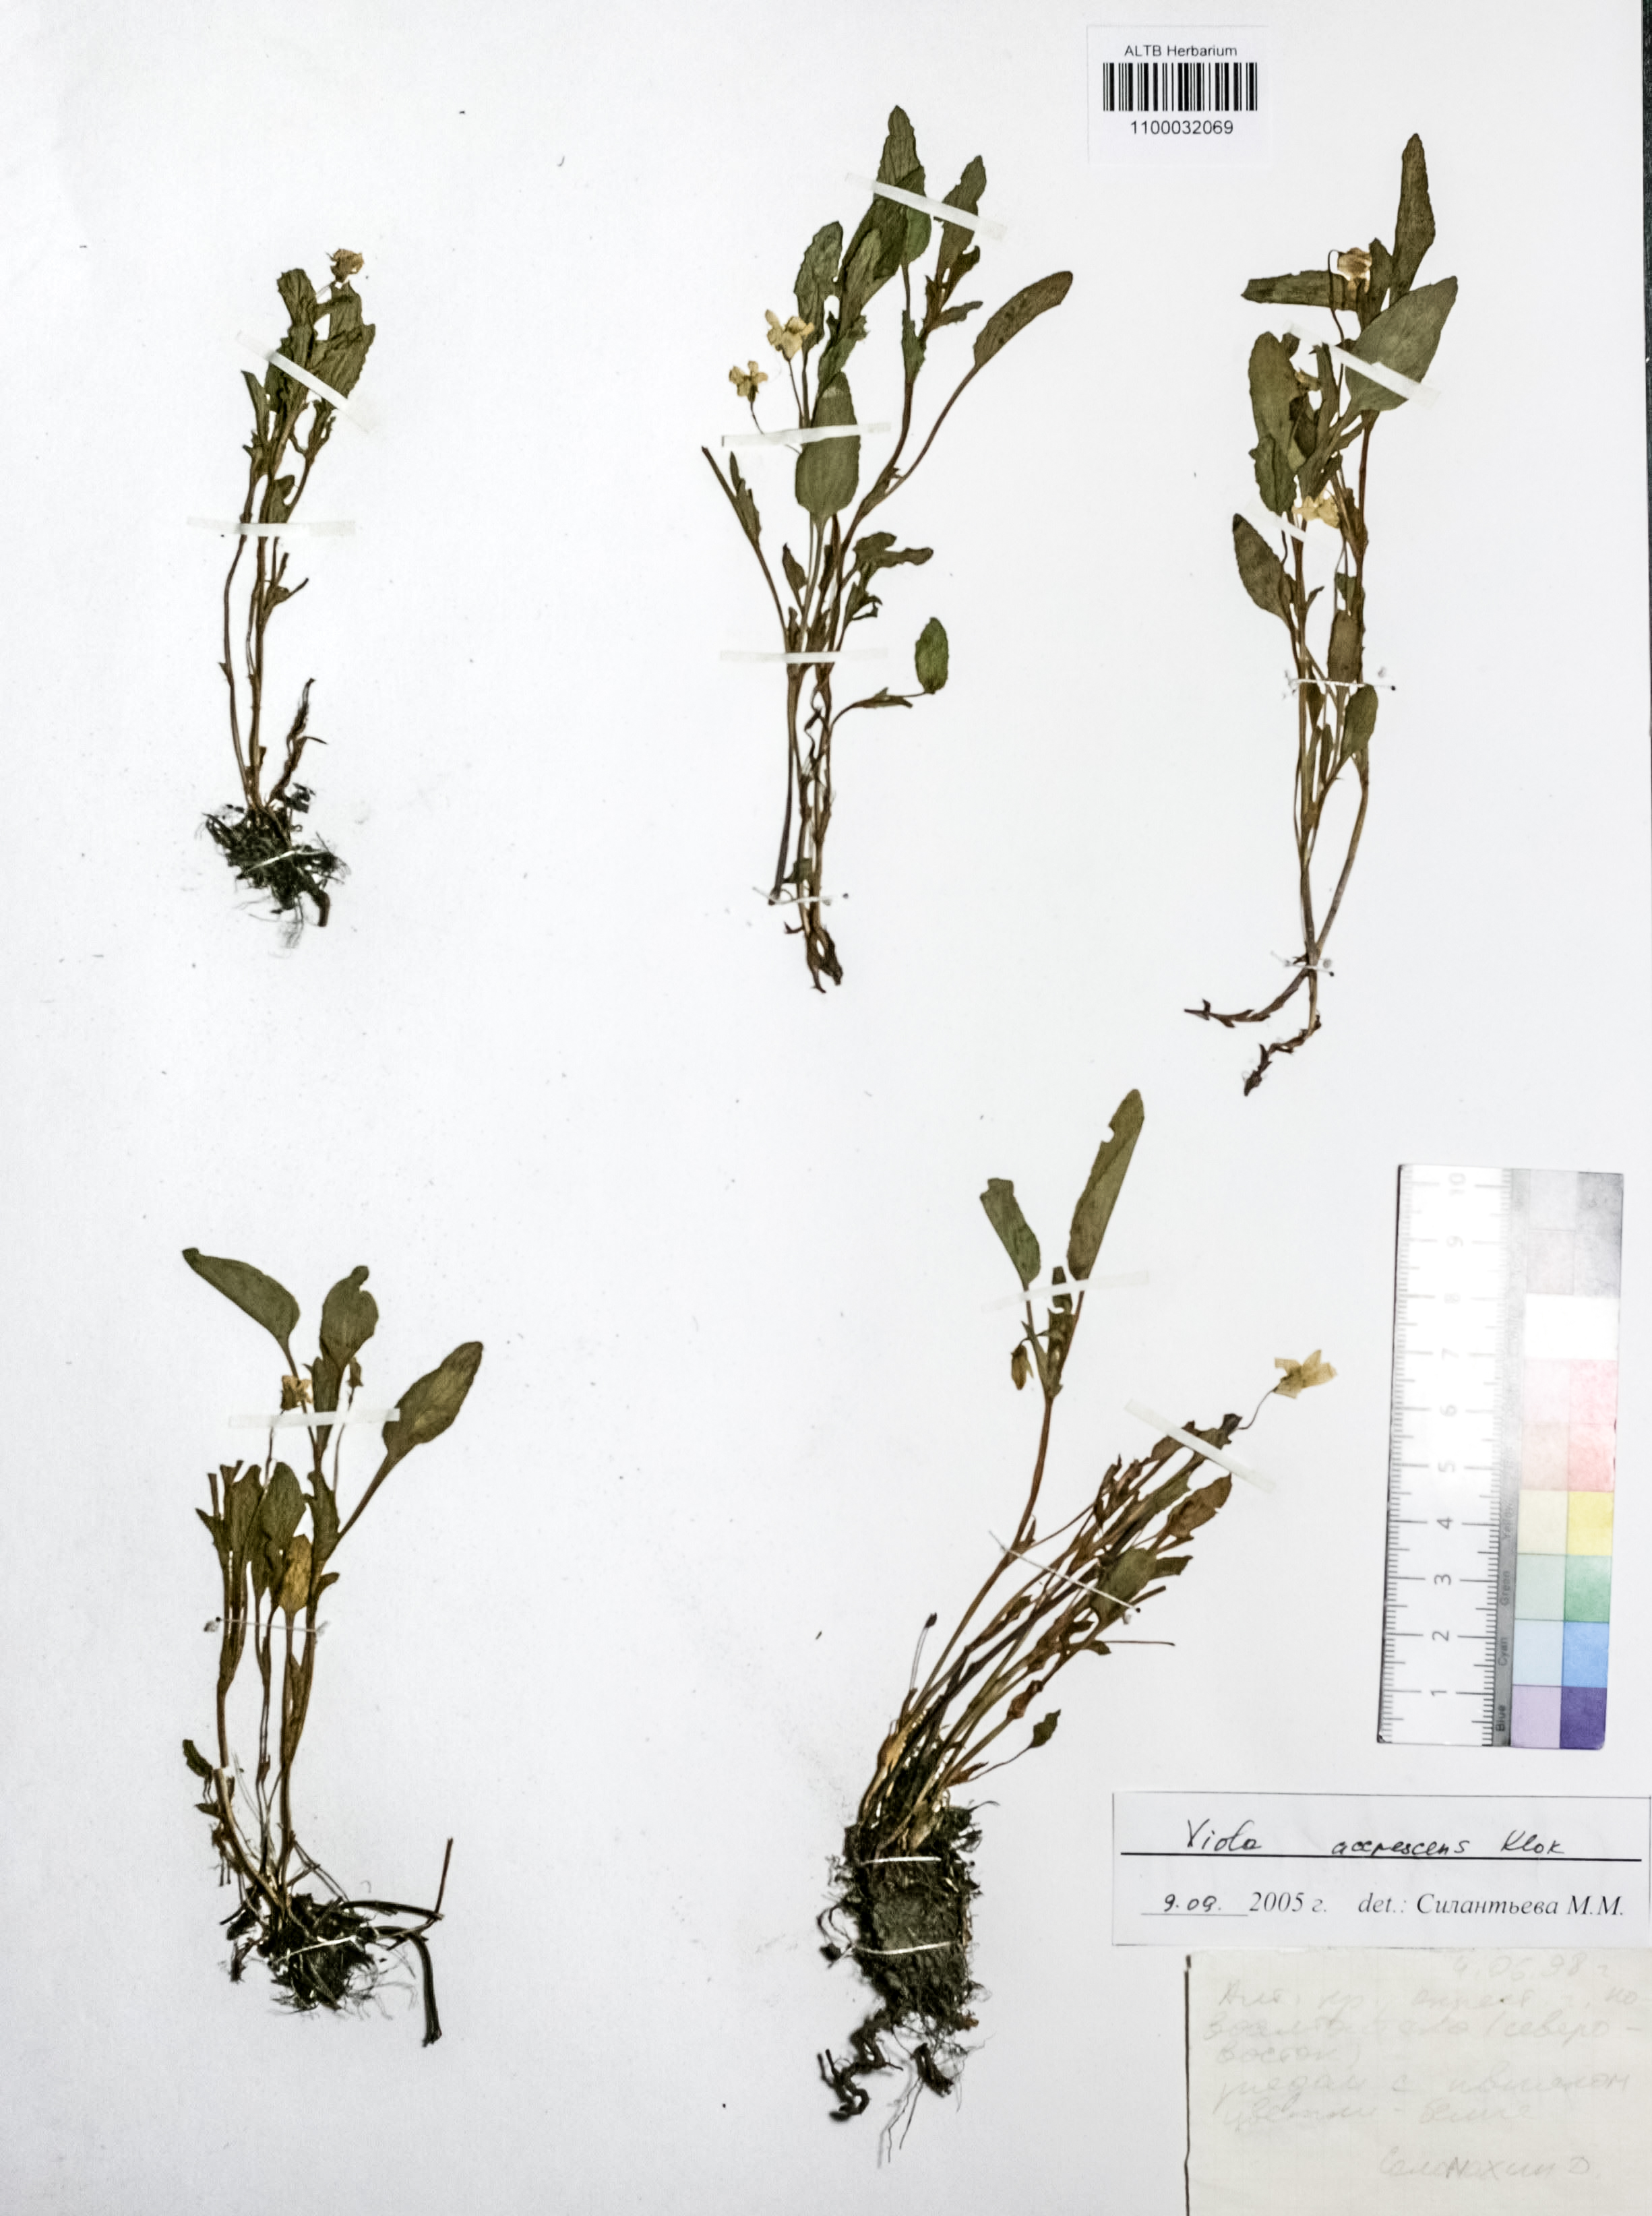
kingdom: Plantae
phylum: Tracheophyta
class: Magnoliopsida
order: Malpighiales
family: Violaceae
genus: Viola
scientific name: Viola pumila
